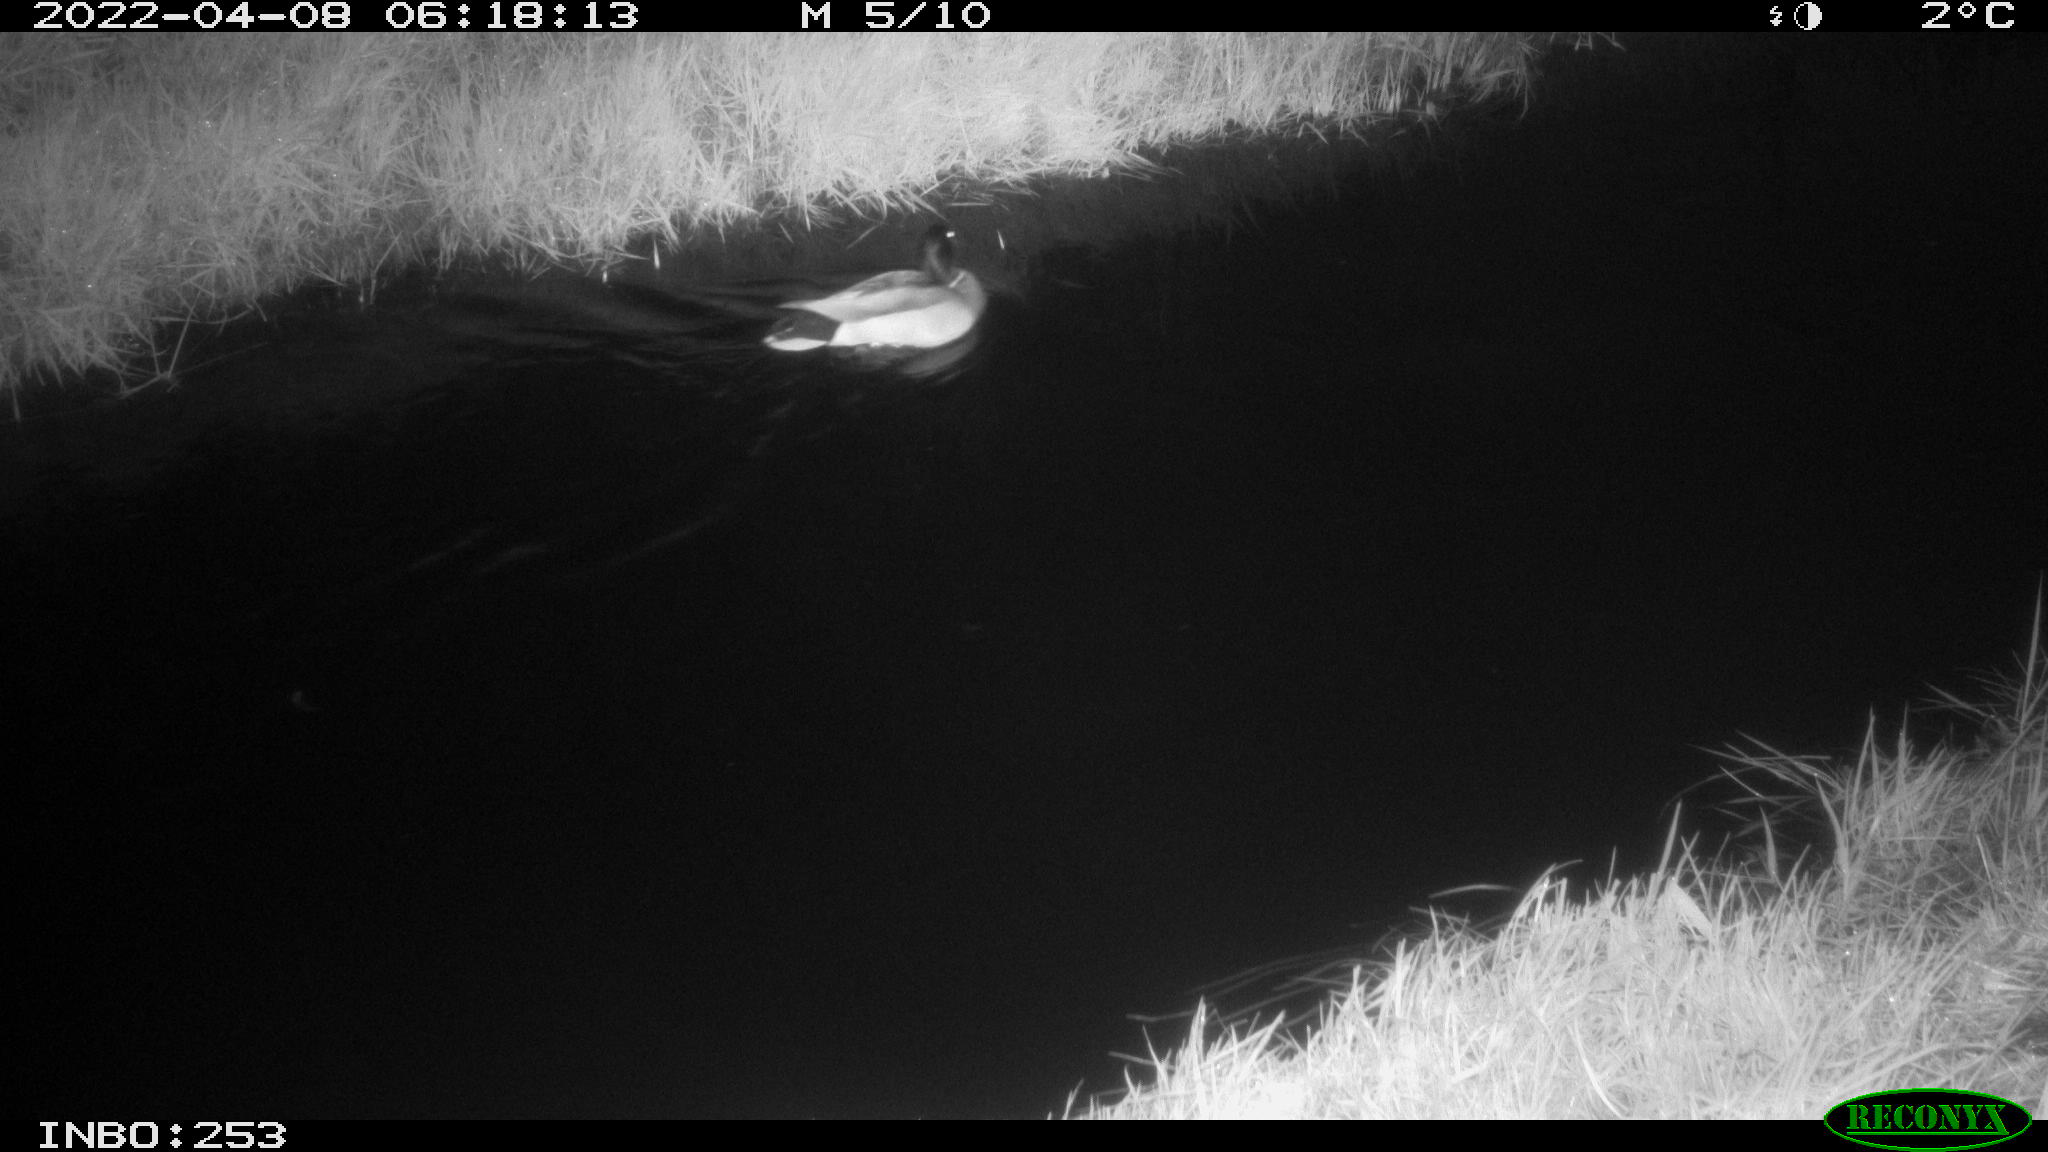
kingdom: Animalia
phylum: Chordata
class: Aves
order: Anseriformes
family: Anatidae
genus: Anas
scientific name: Anas platyrhynchos
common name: Mallard
